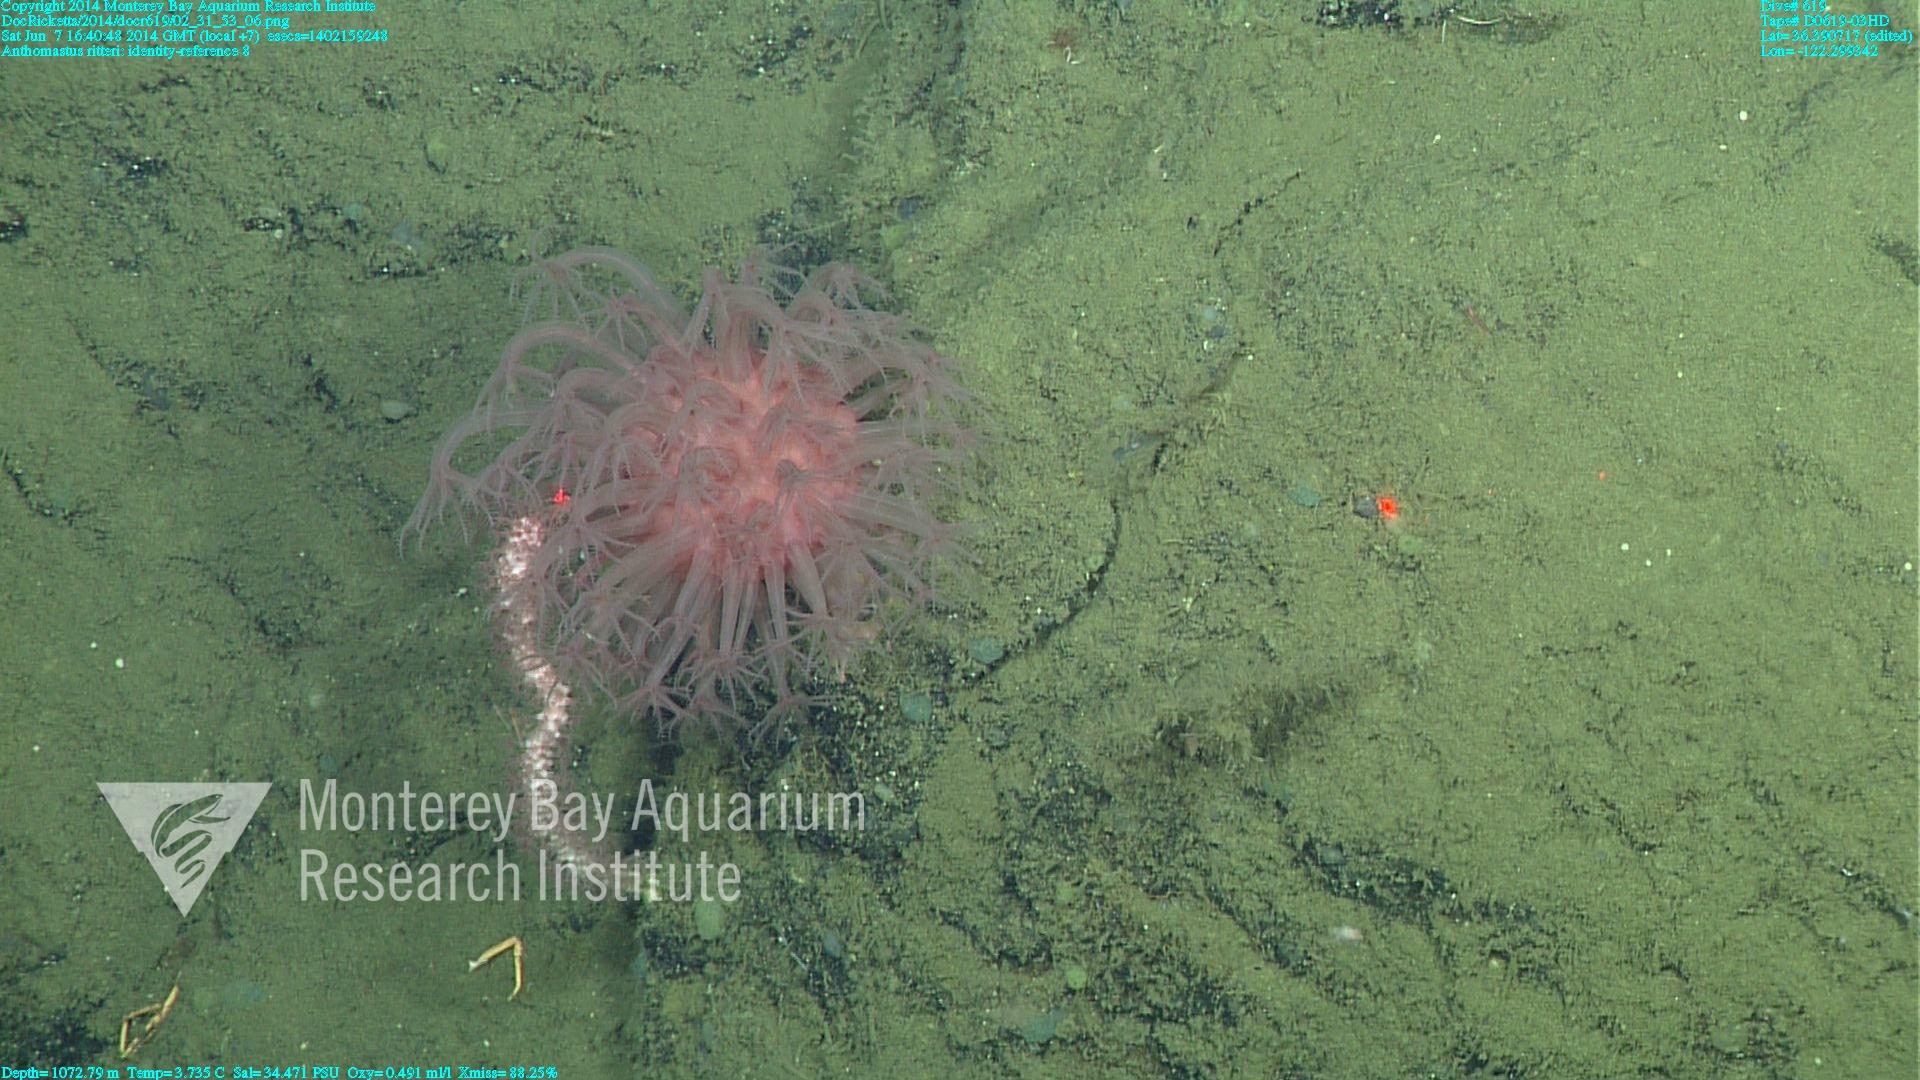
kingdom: Animalia
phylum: Cnidaria
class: Anthozoa
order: Scleralcyonacea
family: Coralliidae
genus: Heteropolypus
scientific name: Heteropolypus ritteri
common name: Ritter's soft coral
